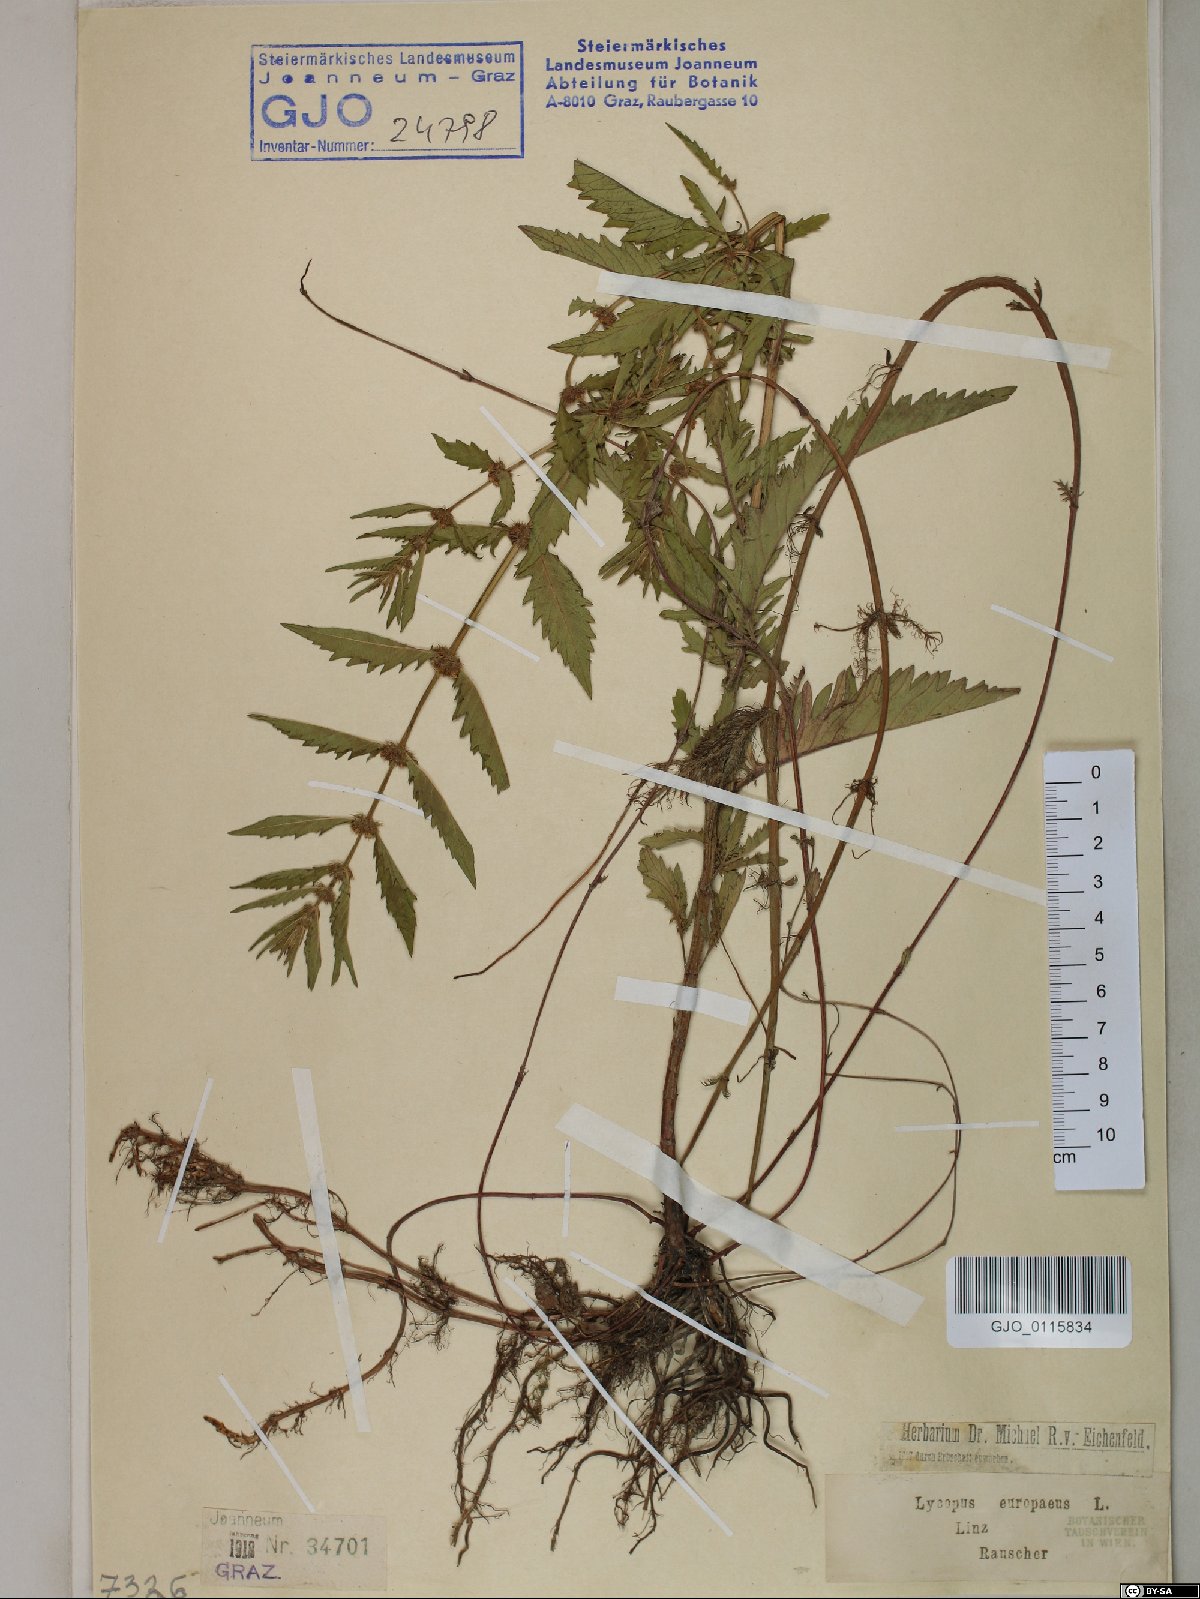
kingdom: Plantae
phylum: Tracheophyta
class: Magnoliopsida
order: Lamiales
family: Lamiaceae
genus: Lycopus
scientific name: Lycopus europaeus
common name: European bugleweed
